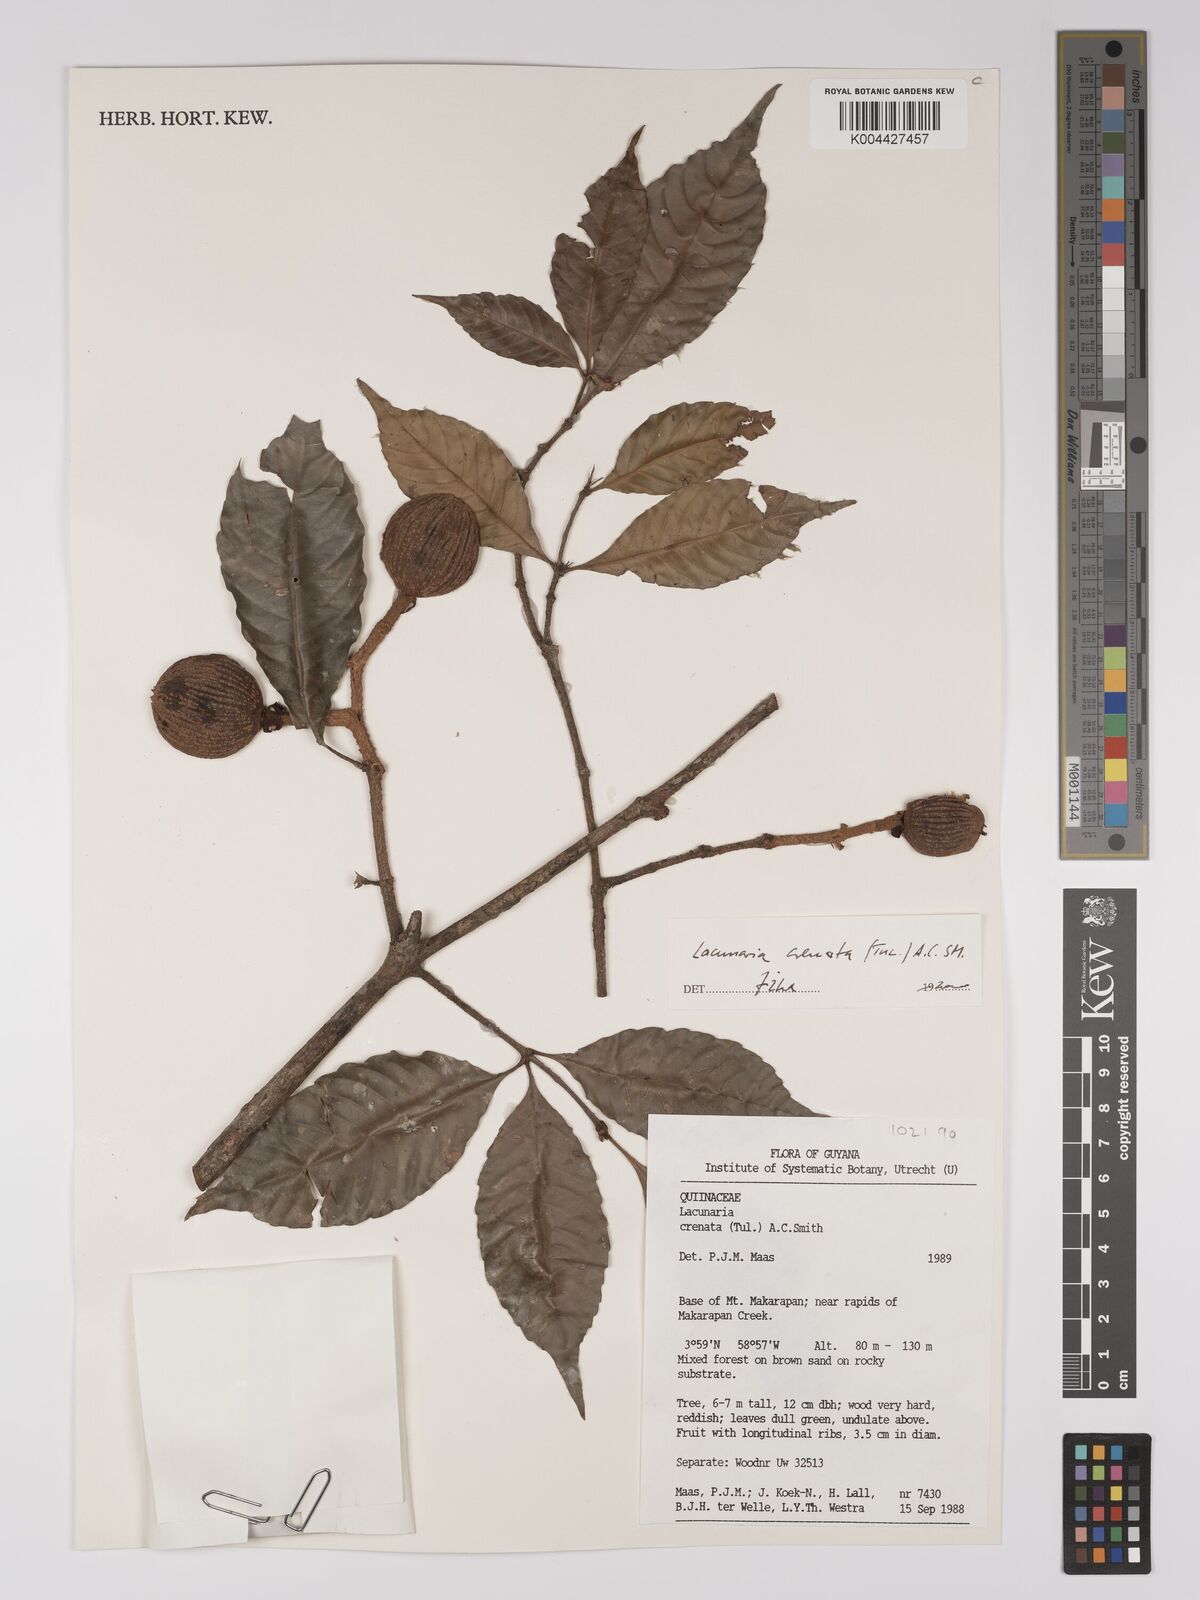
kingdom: Plantae
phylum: Tracheophyta
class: Magnoliopsida
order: Malpighiales
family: Quiinaceae
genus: Lacunaria
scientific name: Lacunaria crenata
